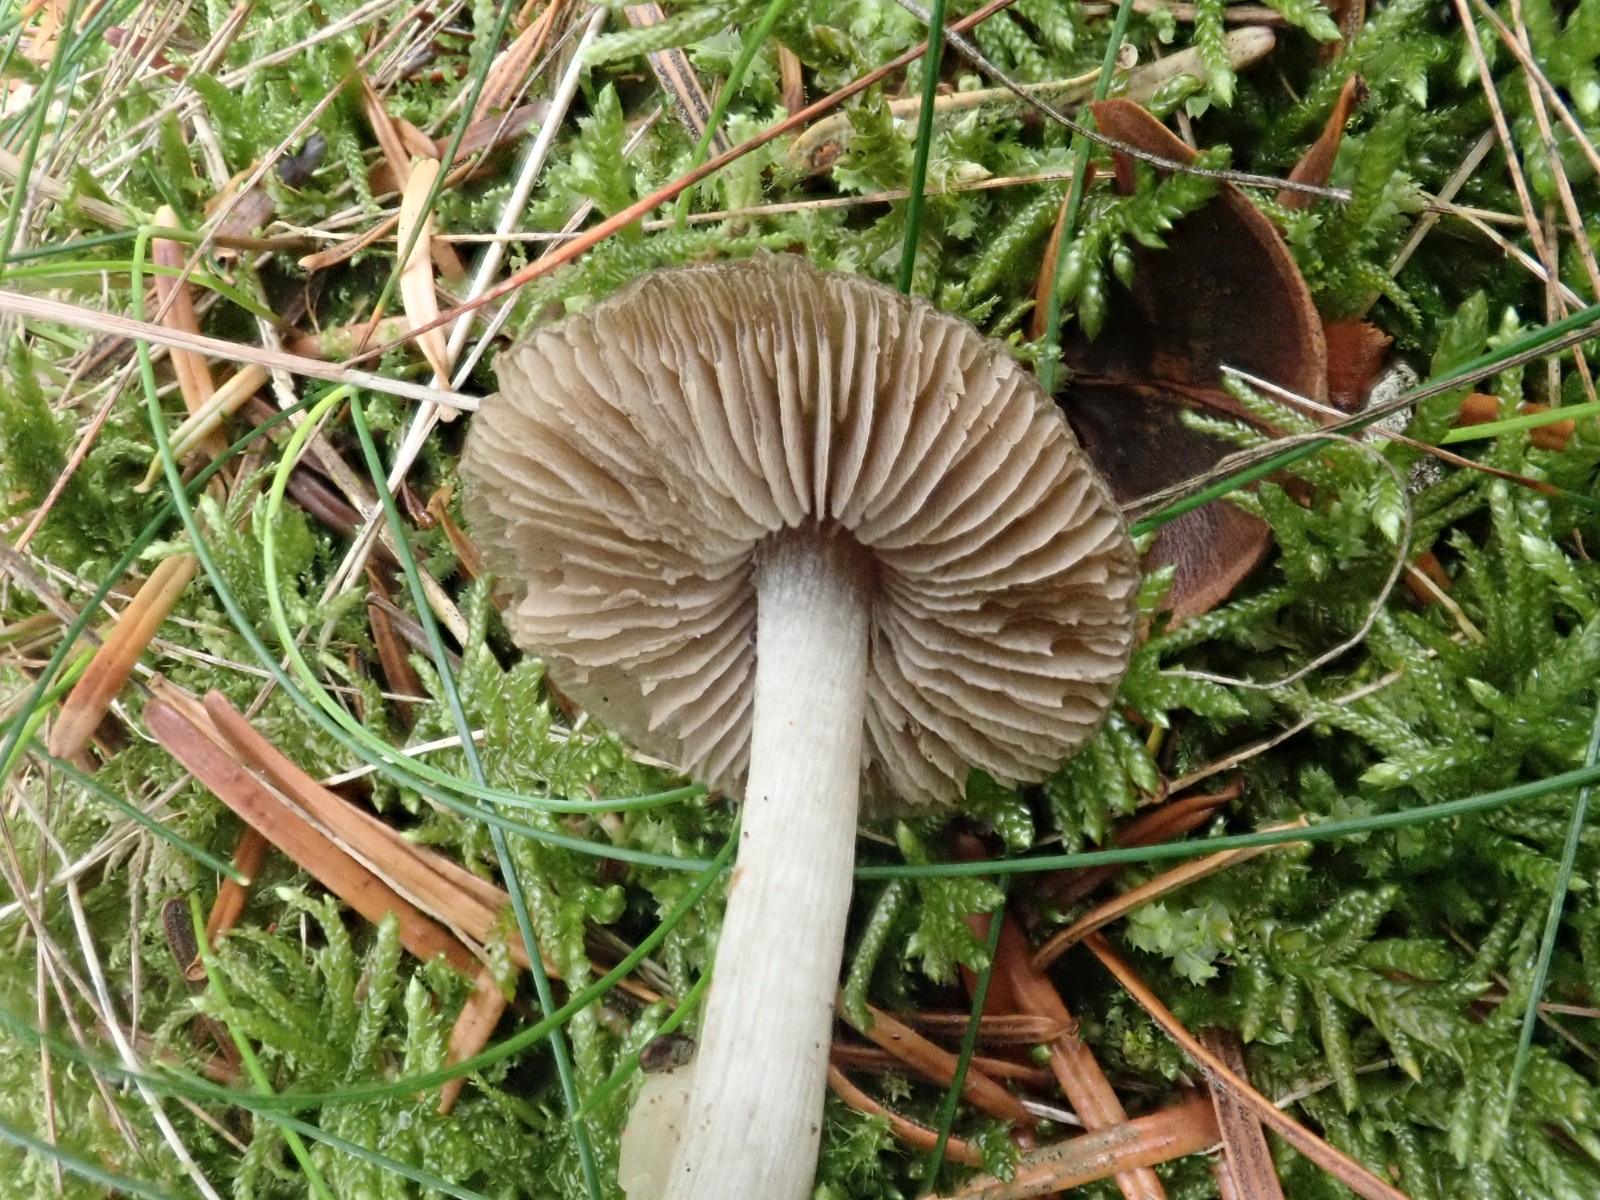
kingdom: Fungi
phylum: Basidiomycota
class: Agaricomycetes
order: Agaricales
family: Entolomataceae
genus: Entoloma
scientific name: Entoloma
